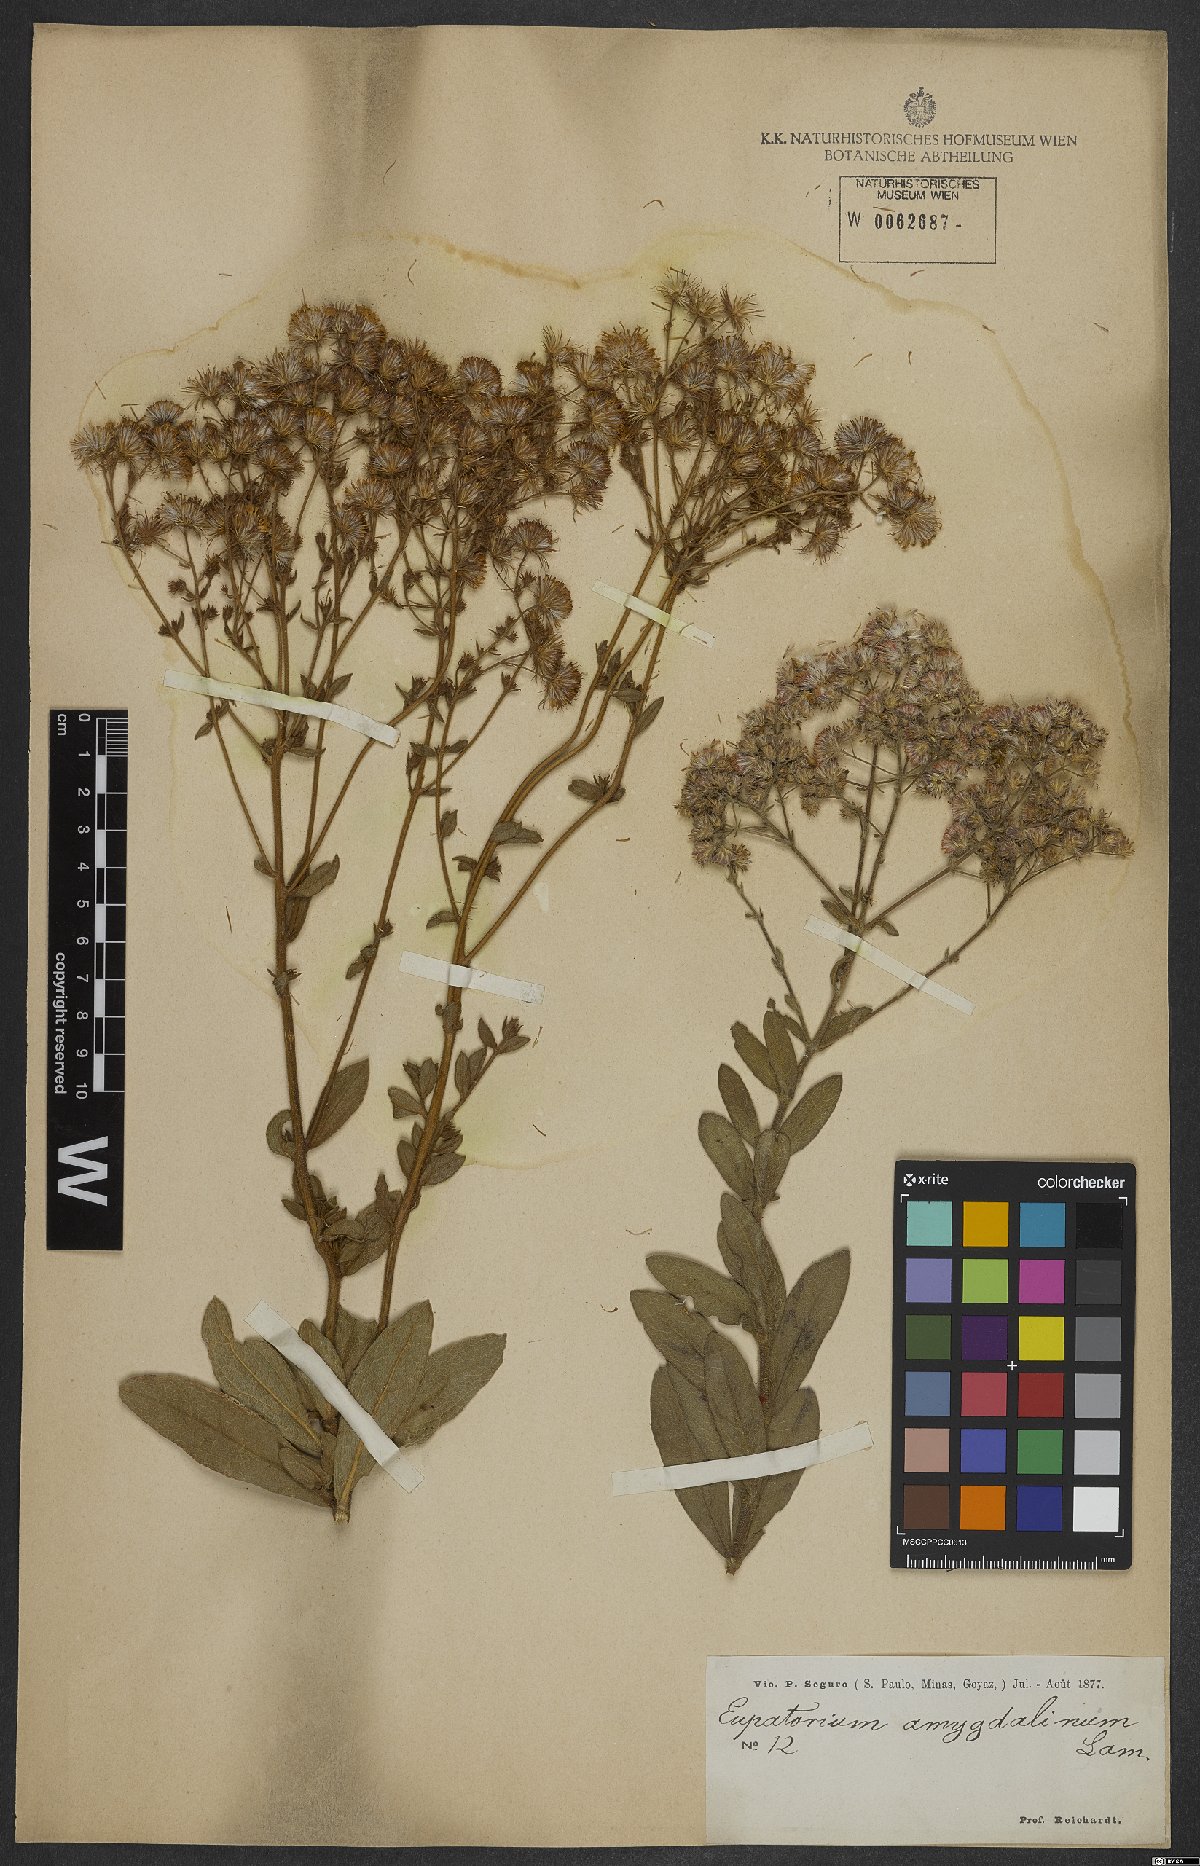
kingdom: Plantae
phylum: Tracheophyta
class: Magnoliopsida
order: Asterales
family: Asteraceae
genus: Ayapana
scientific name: Ayapana amygdalina
